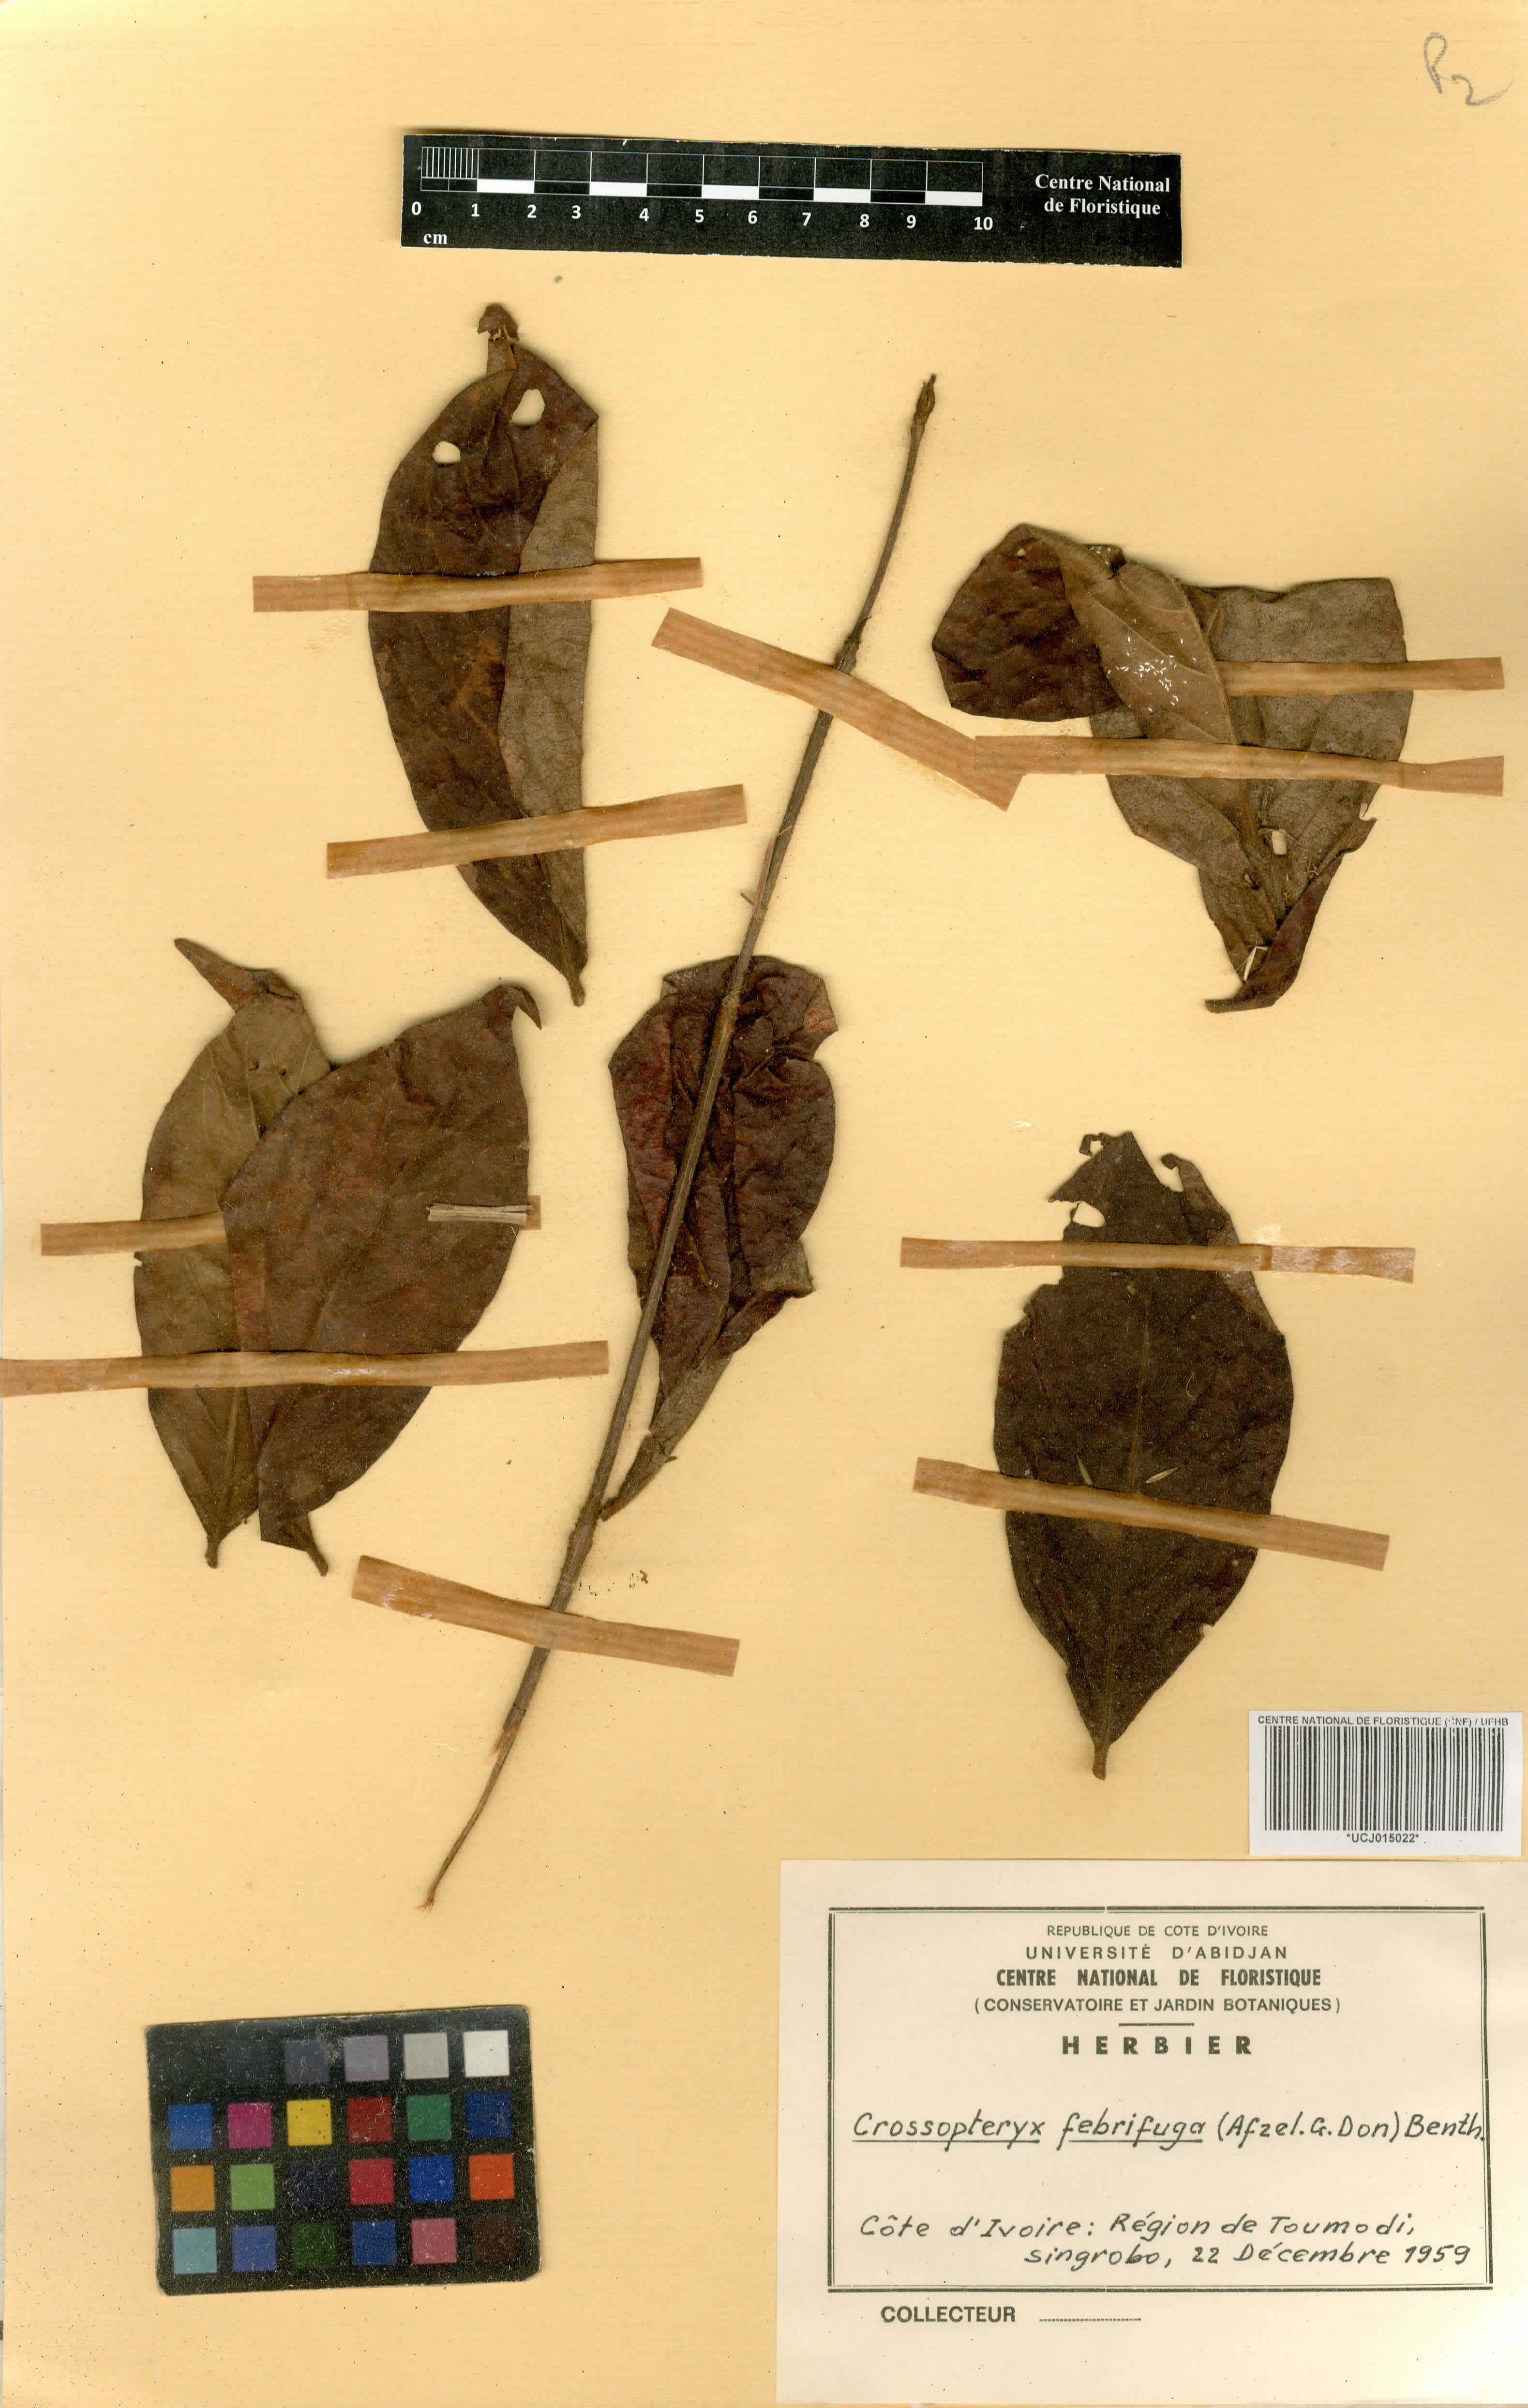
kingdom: Plantae
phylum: Tracheophyta
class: Magnoliopsida
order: Gentianales
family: Rubiaceae
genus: Crossopteryx
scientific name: Crossopteryx febrifuga
